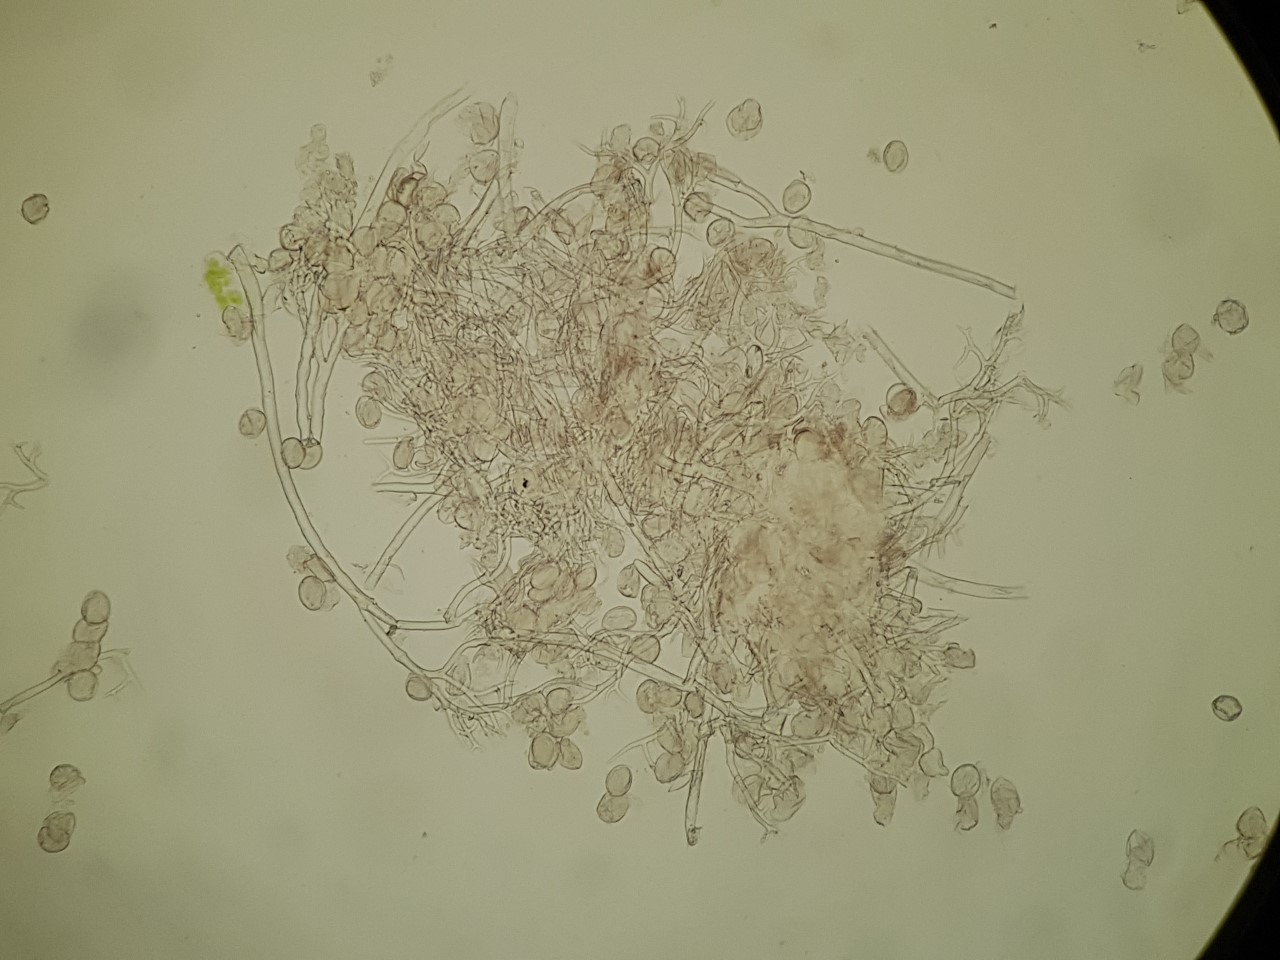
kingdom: Chromista
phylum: Oomycota
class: Peronosporea
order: Peronosporales
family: Peronosporaceae
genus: Peronospora
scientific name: Peronospora corydalis
